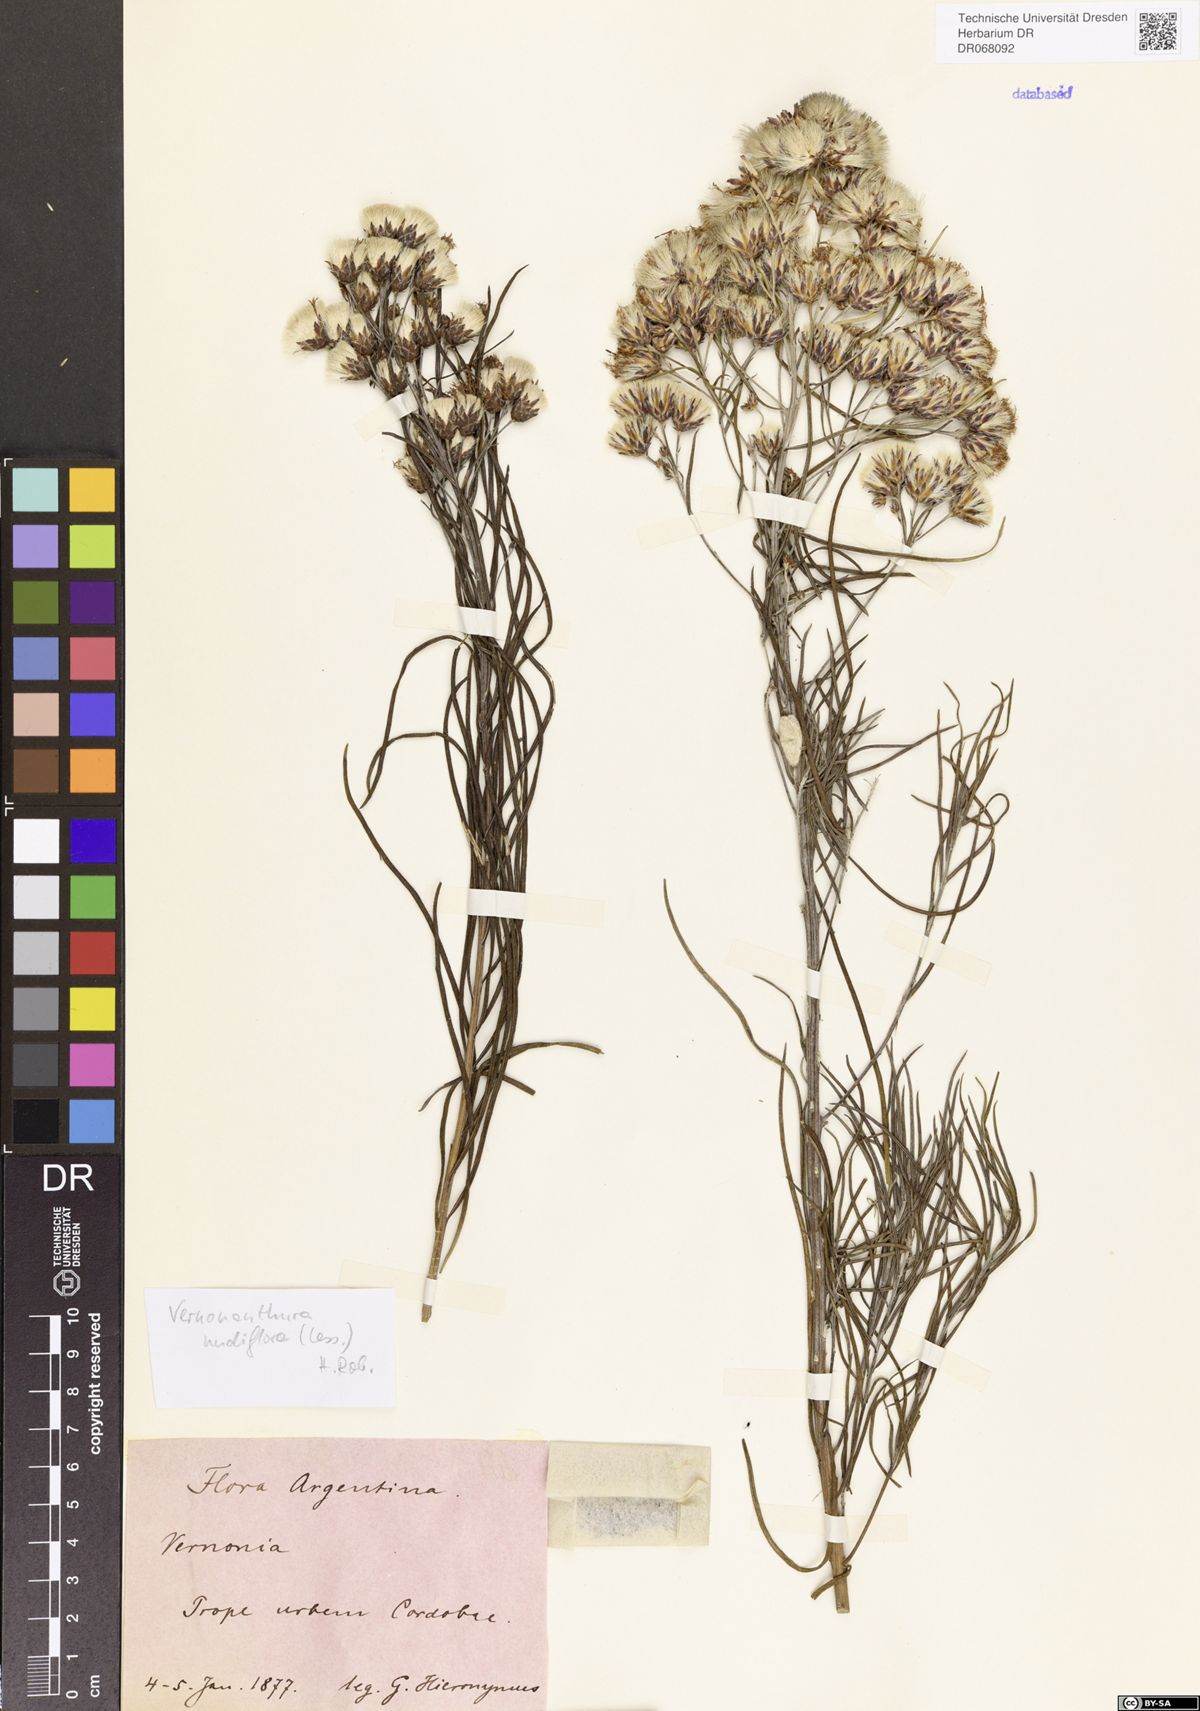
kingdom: Plantae
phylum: Tracheophyta
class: Magnoliopsida
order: Asterales
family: Asteraceae
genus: Vernonanthura
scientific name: Vernonanthura nudiflora
